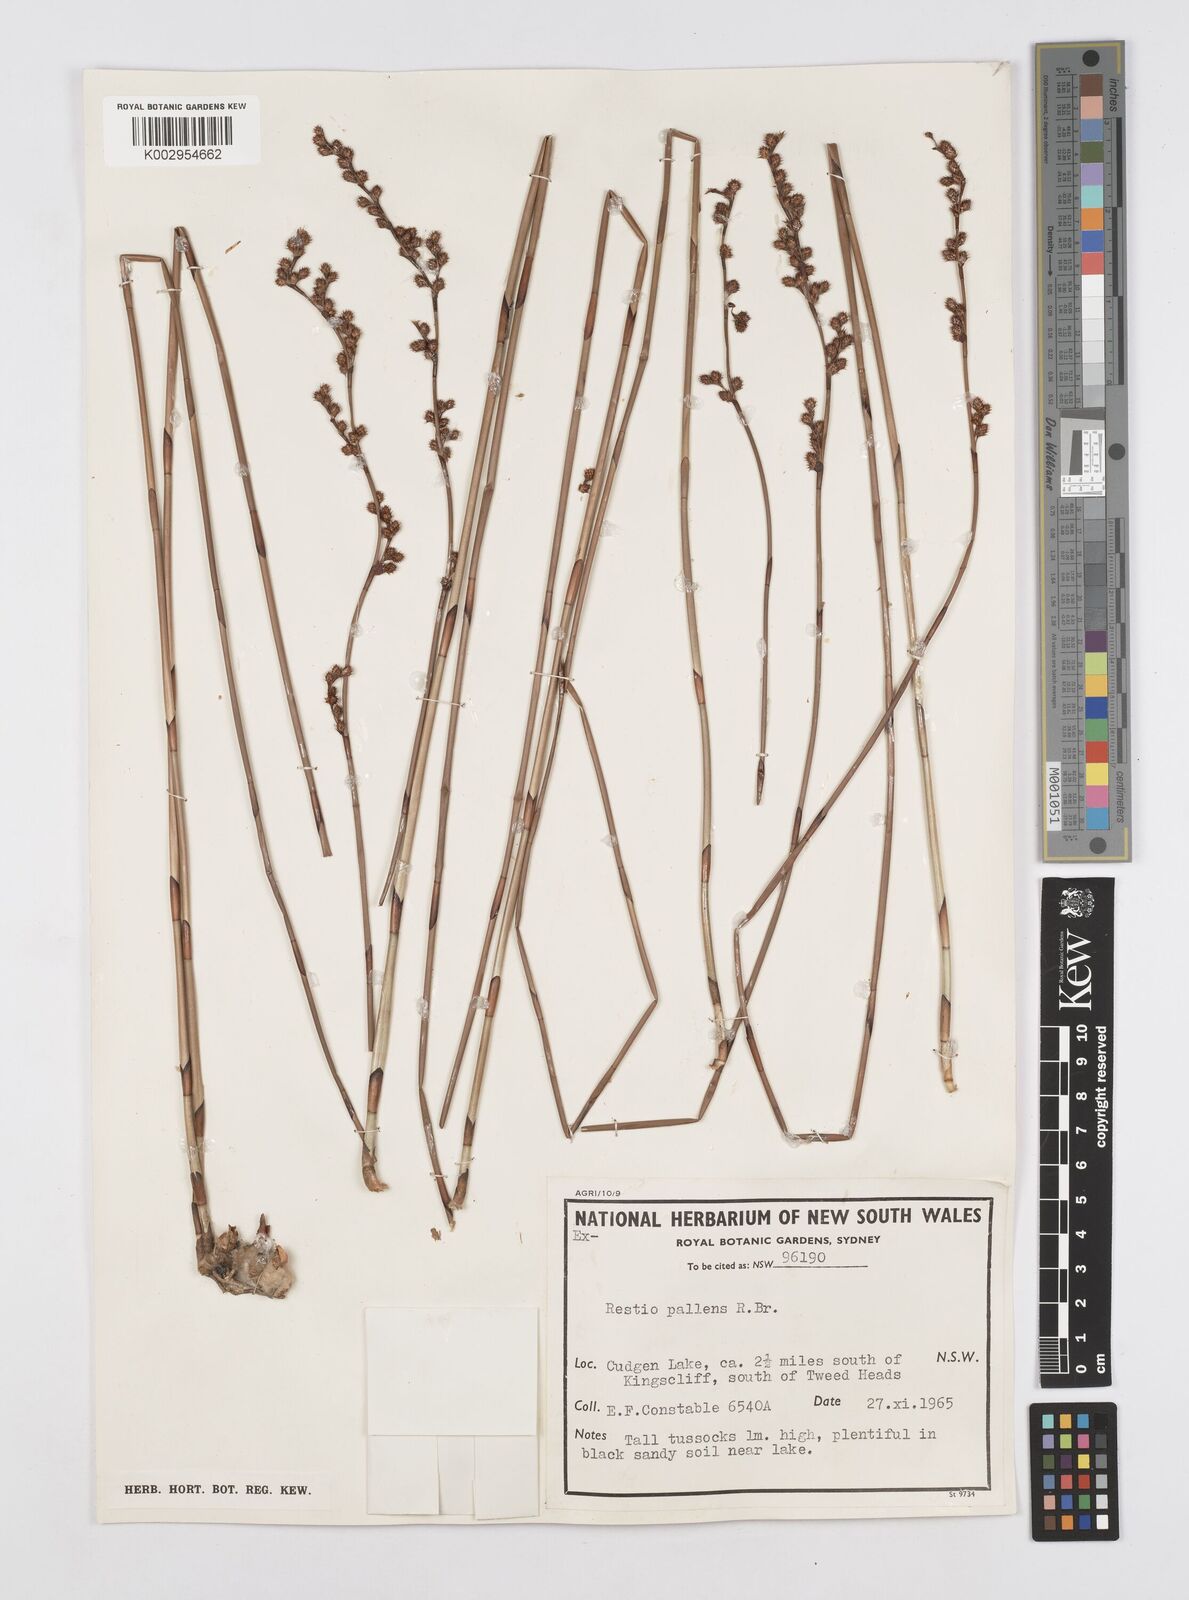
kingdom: Plantae
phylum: Tracheophyta
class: Liliopsida
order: Poales
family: Restionaceae
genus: Baloskion
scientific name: Baloskion pallens
